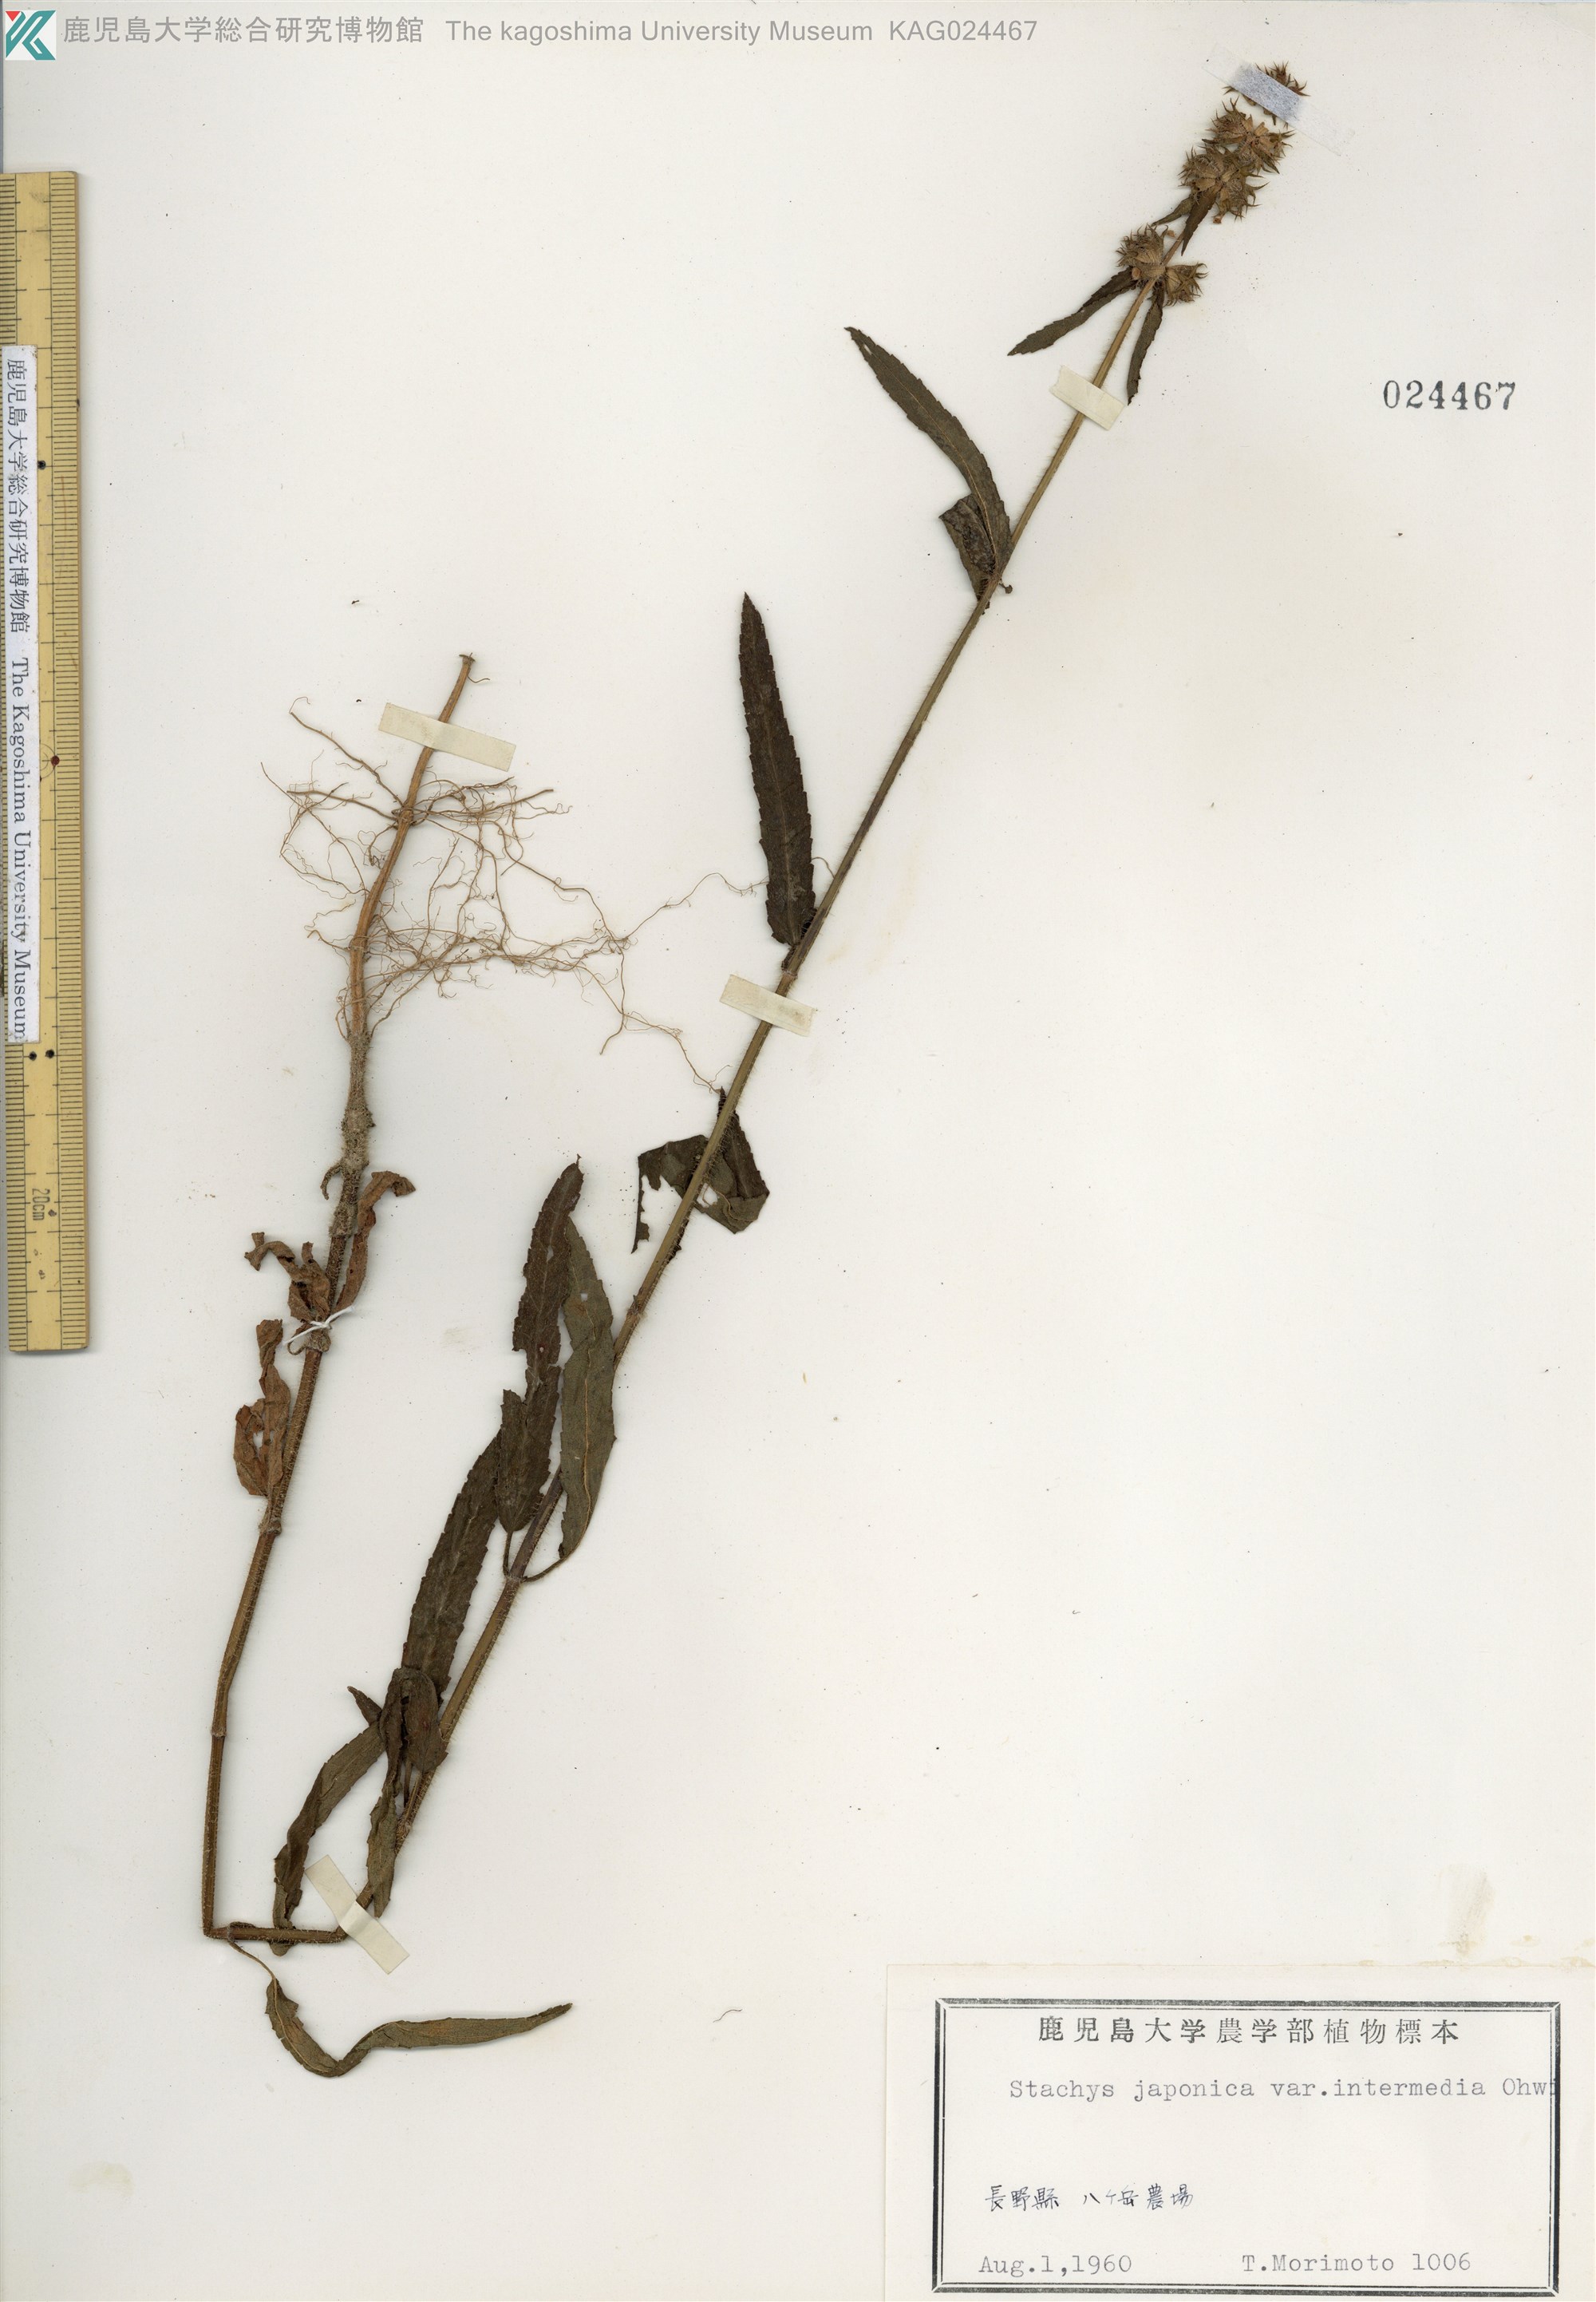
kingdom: Plantae
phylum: Tracheophyta
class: Magnoliopsida
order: Lamiales
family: Lamiaceae
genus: Stachys
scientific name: Stachys aspera
